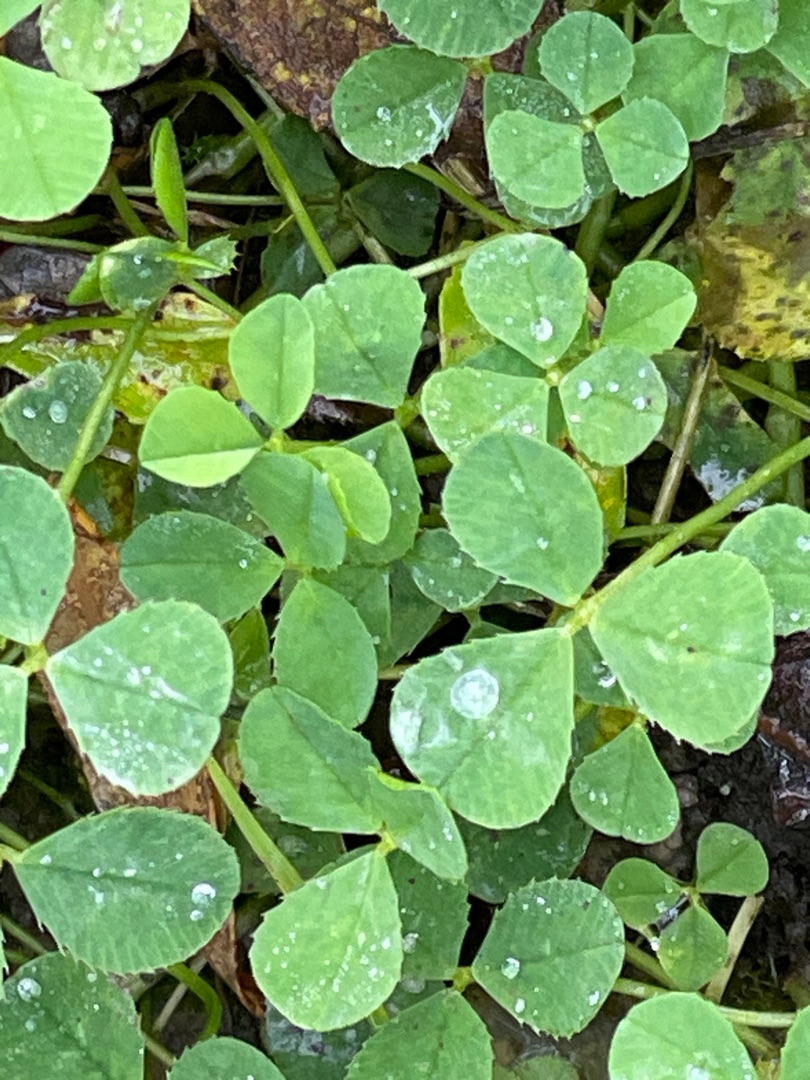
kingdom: Plantae
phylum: Tracheophyta
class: Magnoliopsida
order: Fabales
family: Fabaceae
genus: Trifolium
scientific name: Trifolium repens
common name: Hvid-kløver
